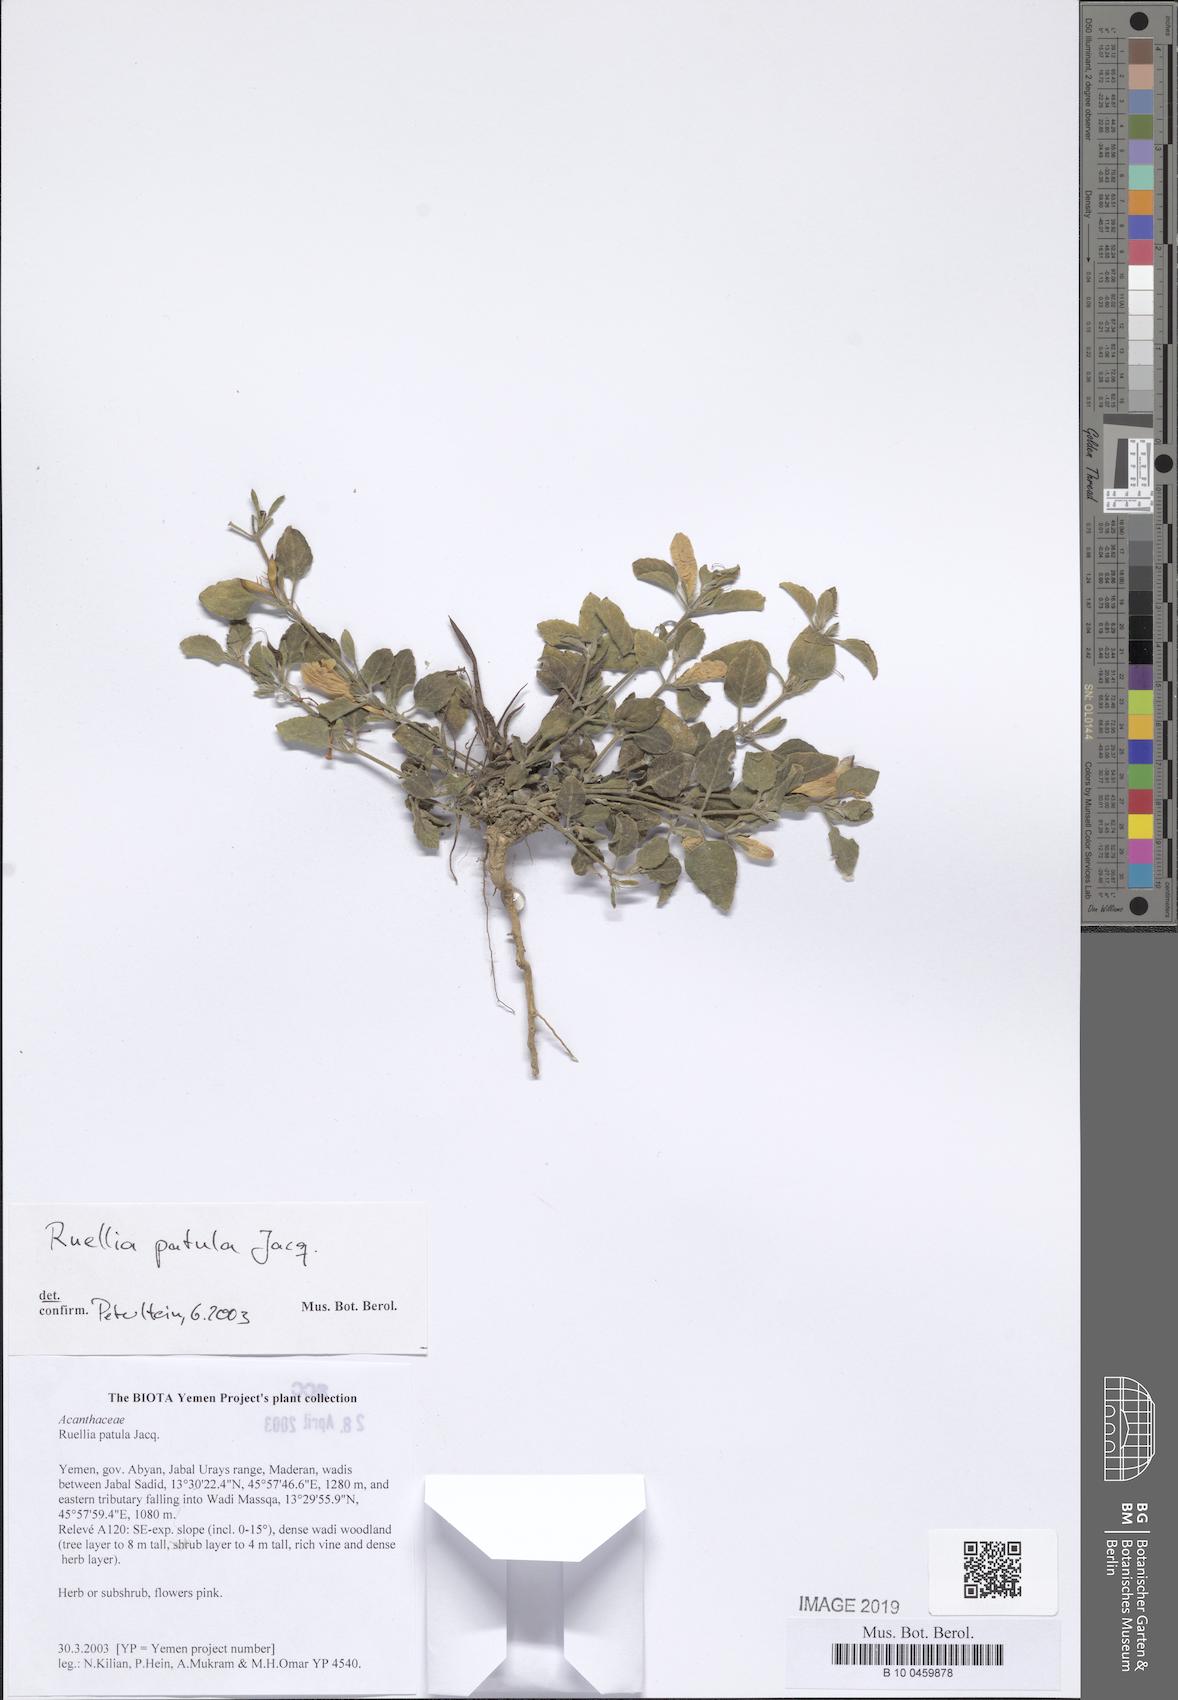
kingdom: Plantae
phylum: Tracheophyta
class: Magnoliopsida
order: Lamiales
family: Acanthaceae
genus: Ruellia
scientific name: Ruellia patula
